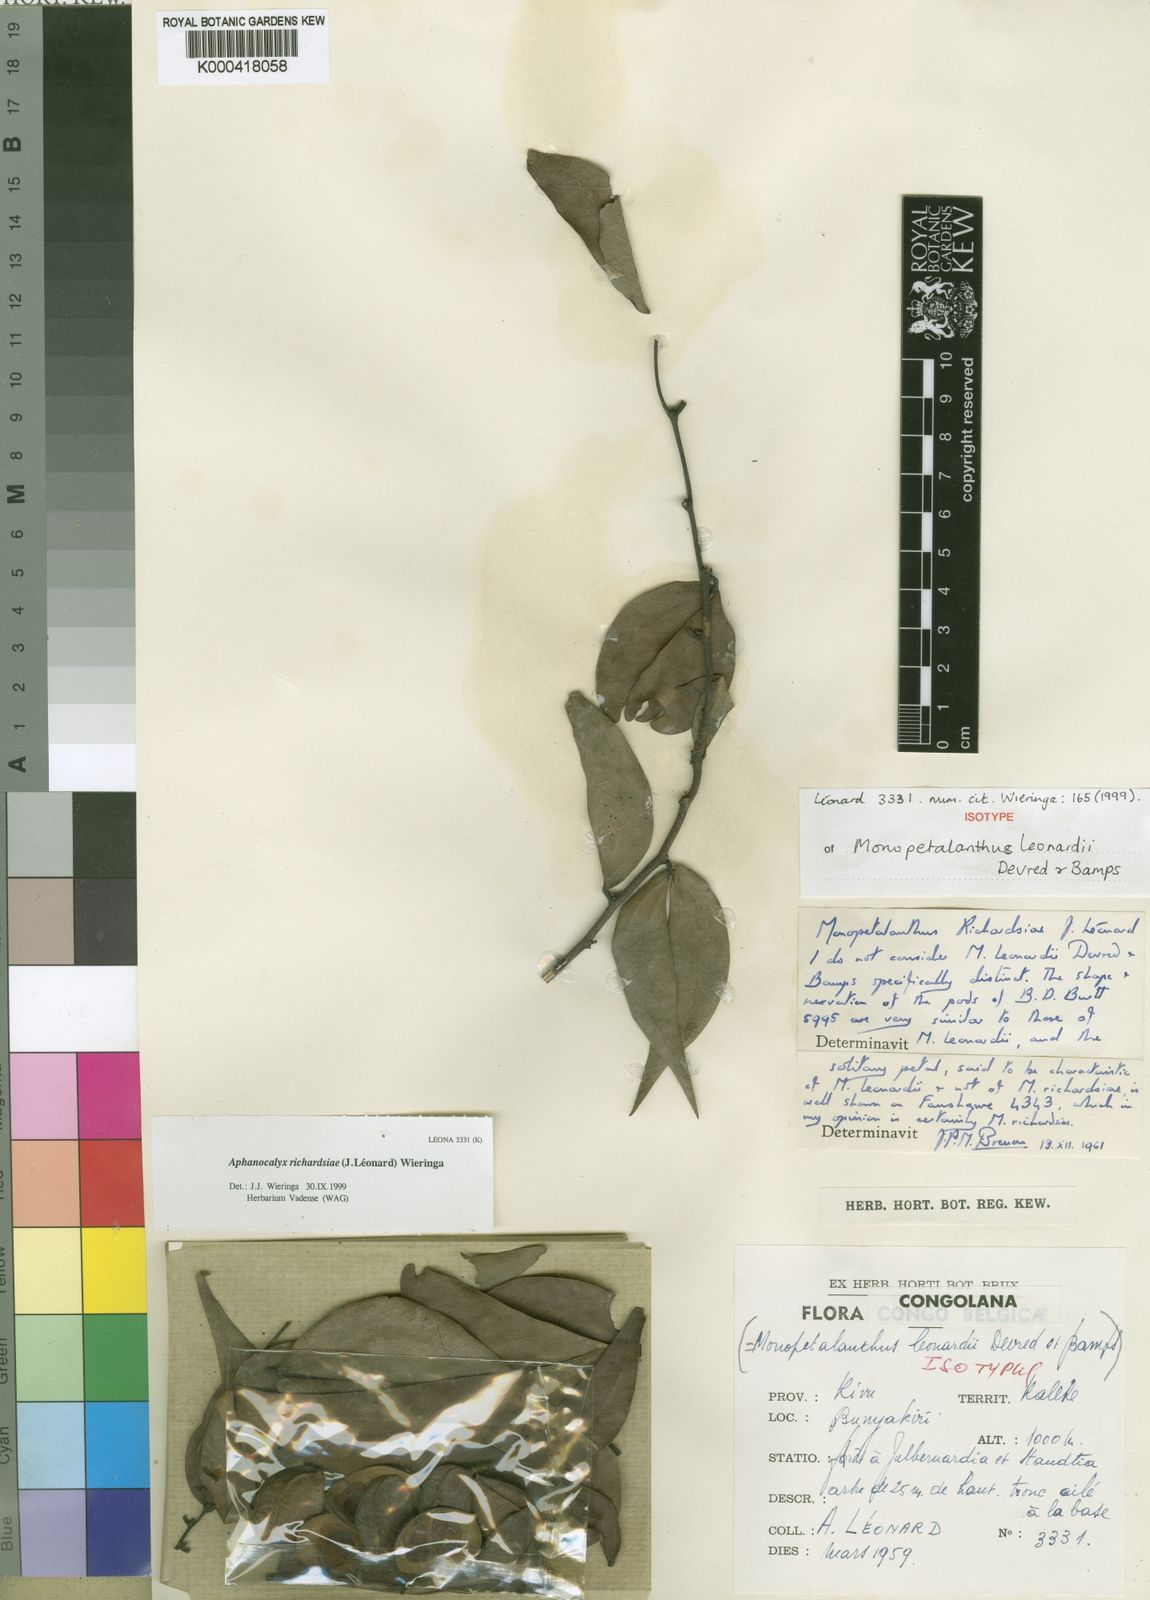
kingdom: Plantae
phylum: Tracheophyta
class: Magnoliopsida
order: Fabales
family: Fabaceae
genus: Aphanocalyx
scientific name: Aphanocalyx
